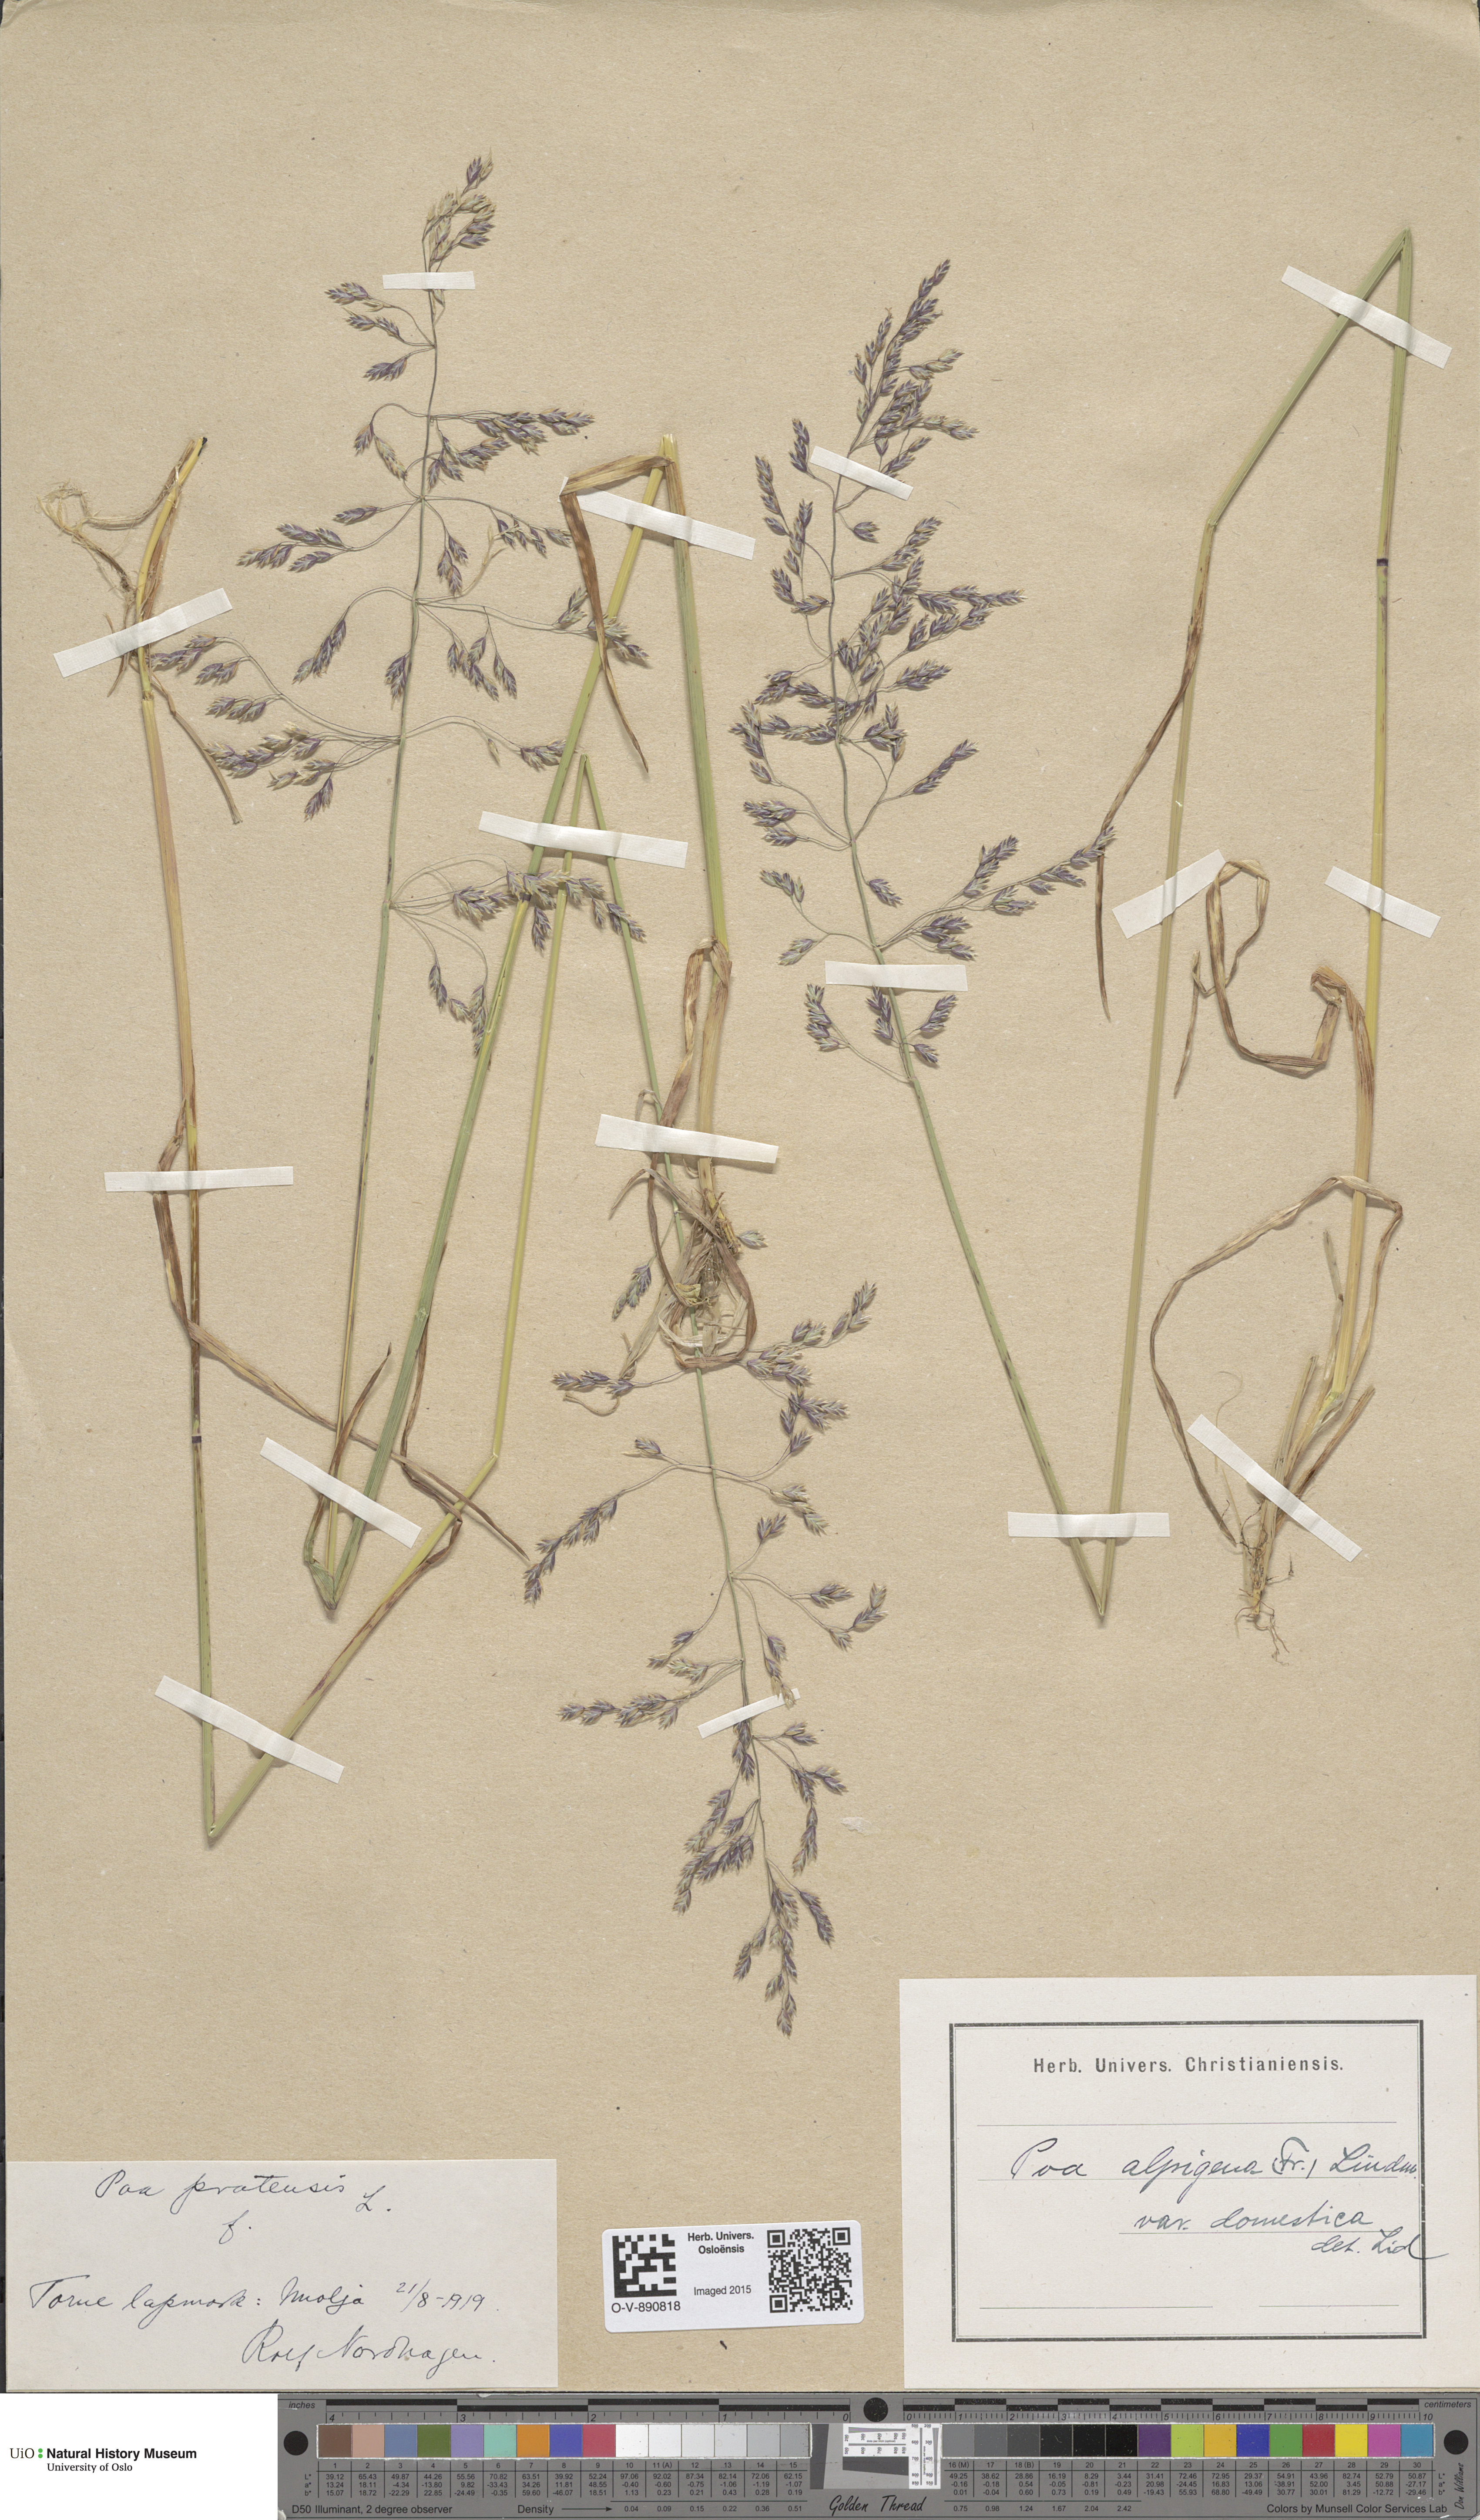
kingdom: Plantae
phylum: Tracheophyta
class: Liliopsida
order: Poales
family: Poaceae
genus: Poa
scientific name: Poa pratensis
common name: Kentucky bluegrass
